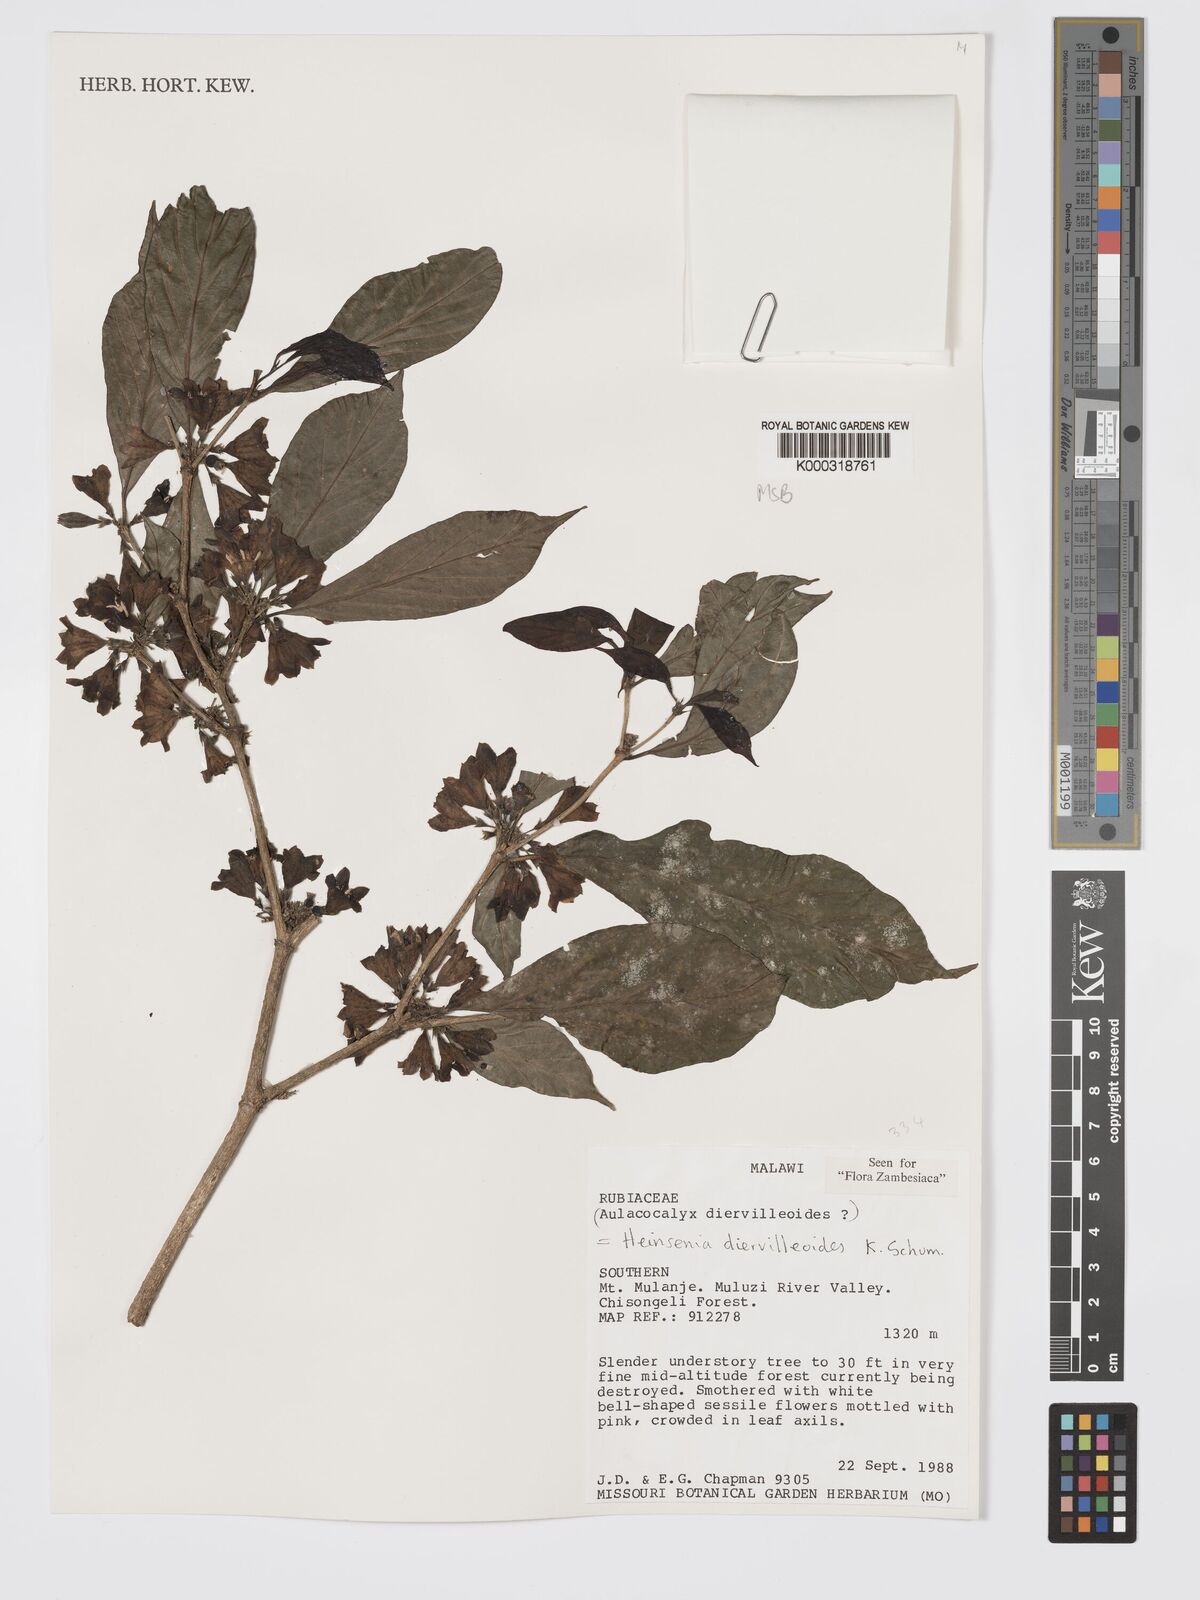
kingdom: Plantae
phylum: Tracheophyta
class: Magnoliopsida
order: Gentianales
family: Rubiaceae
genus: Heinsenia
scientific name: Heinsenia diervilleoides
